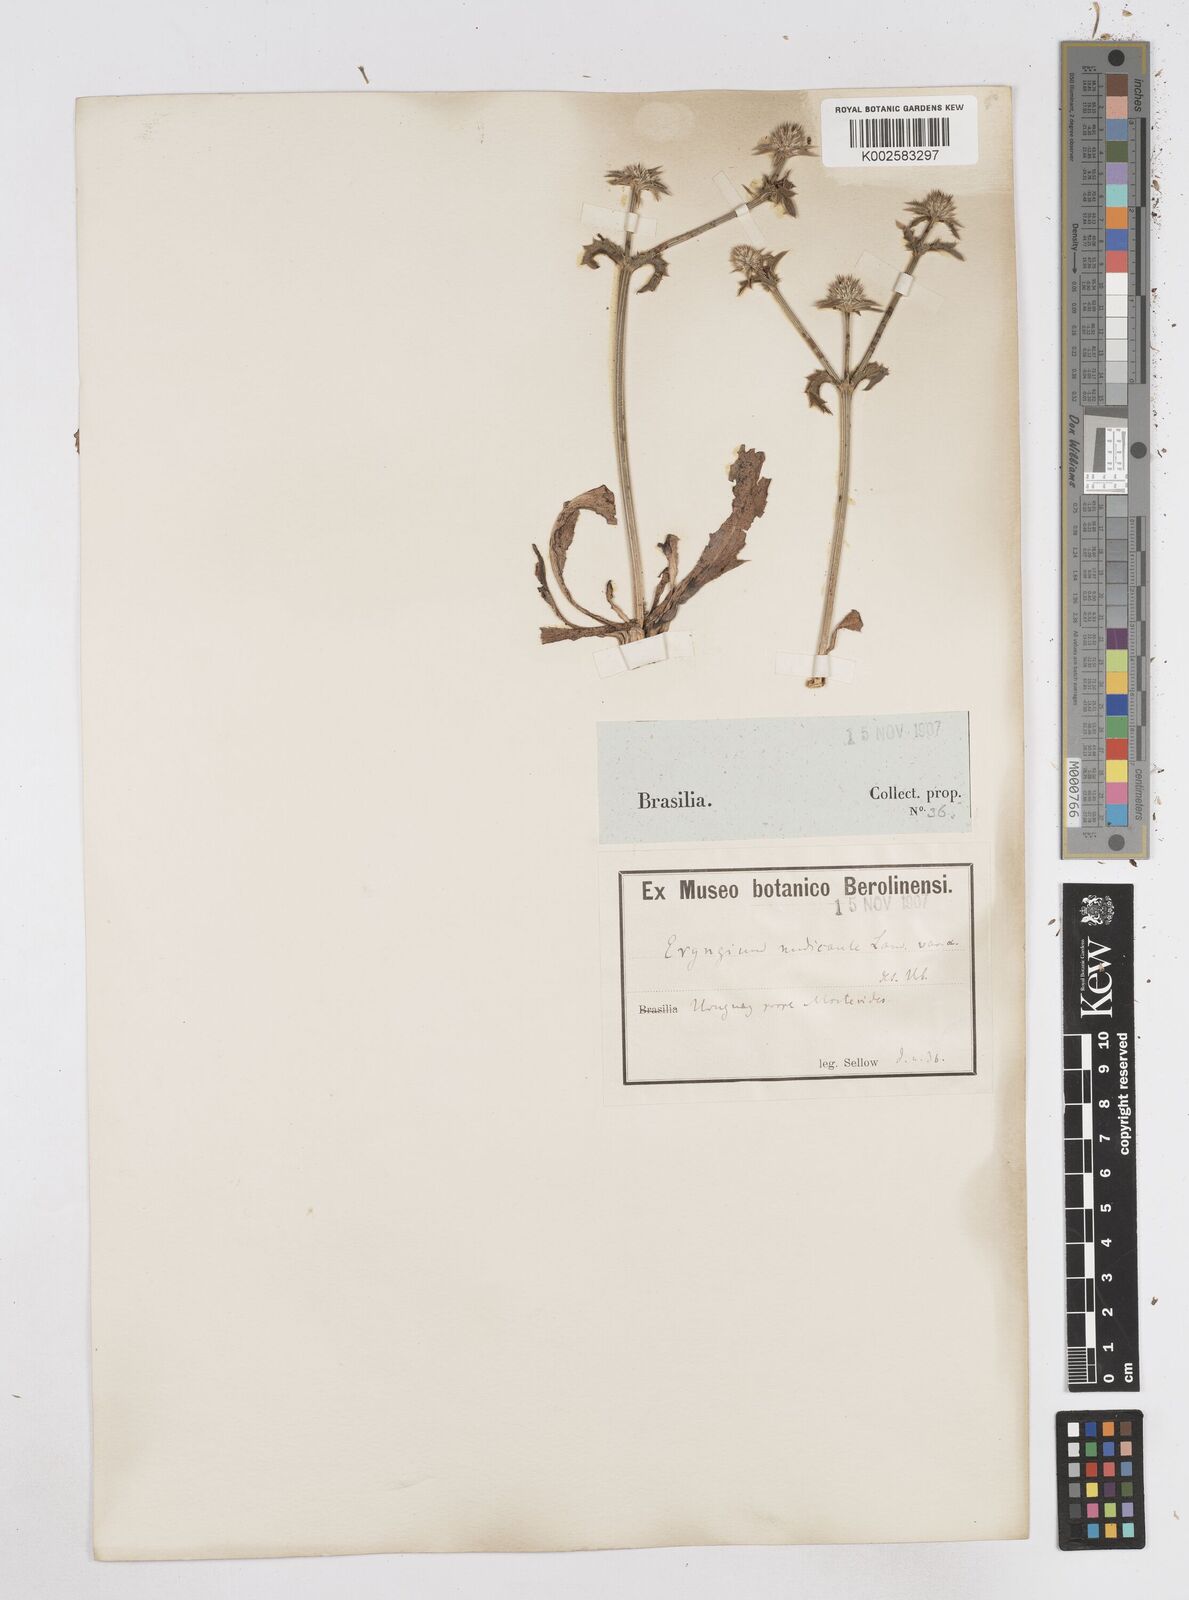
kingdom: Plantae
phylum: Tracheophyta
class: Magnoliopsida
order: Apiales
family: Apiaceae
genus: Eryngium
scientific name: Eryngium nudicaule
